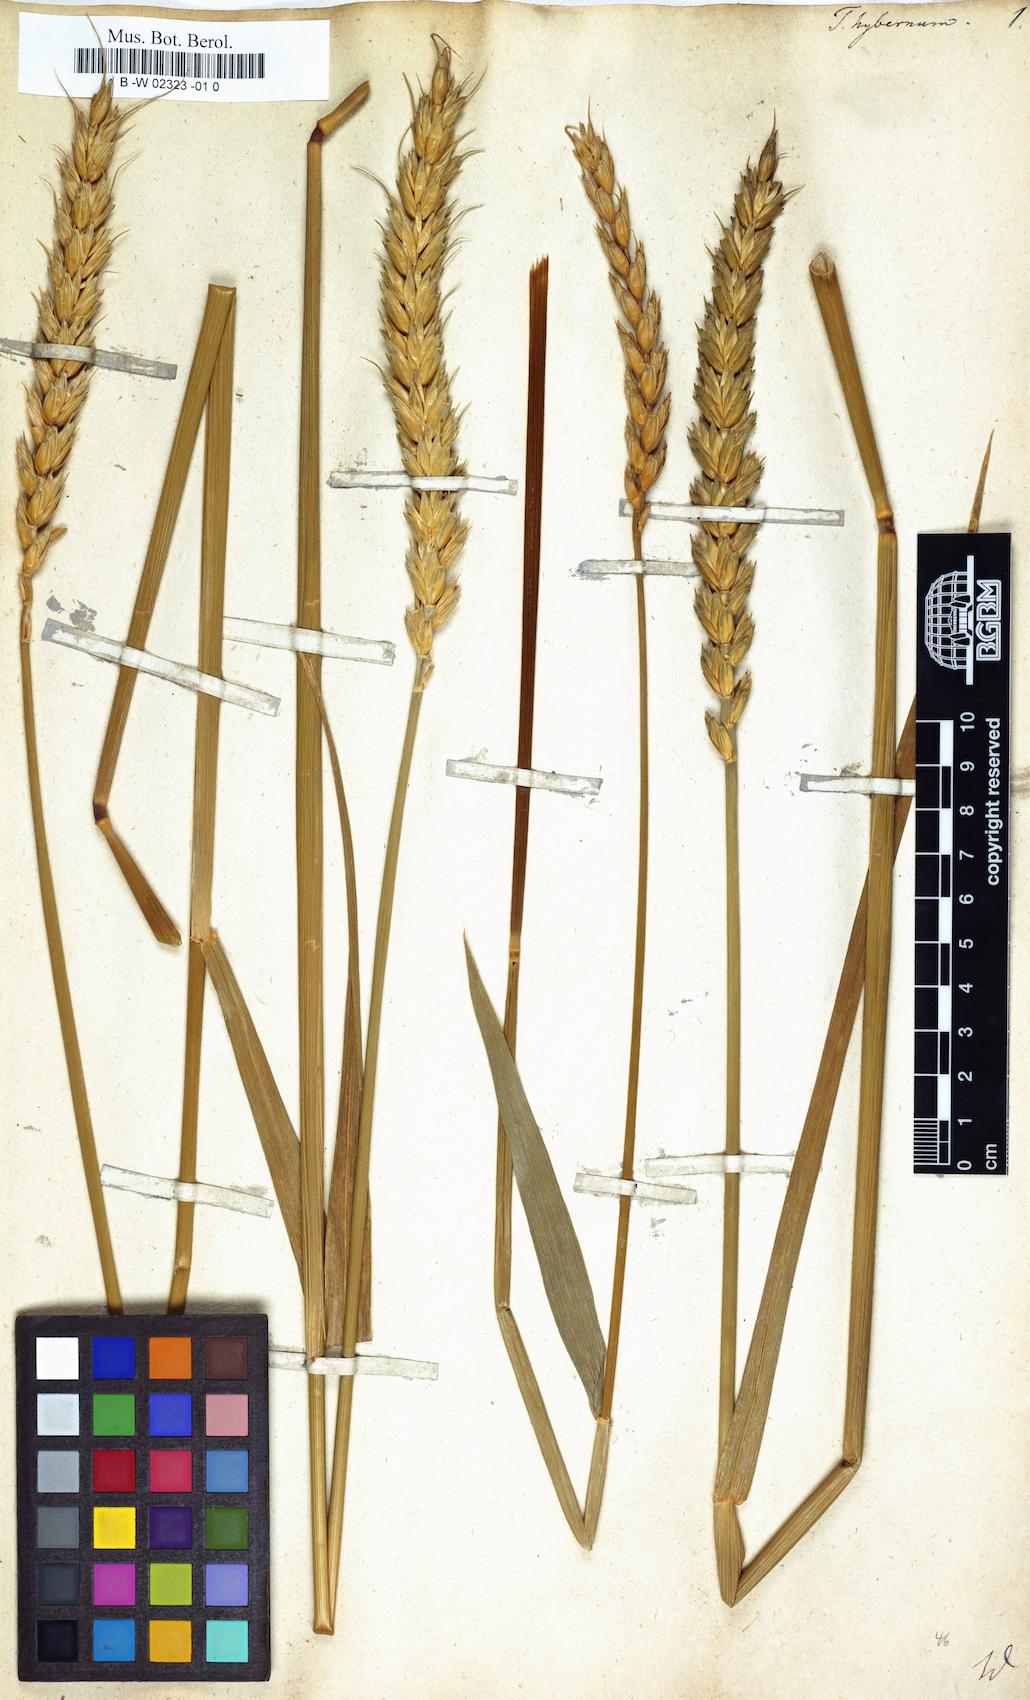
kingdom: Plantae
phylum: Tracheophyta
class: Liliopsida
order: Poales
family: Poaceae
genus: Triticum
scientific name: Triticum aestivum
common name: Common wheat
